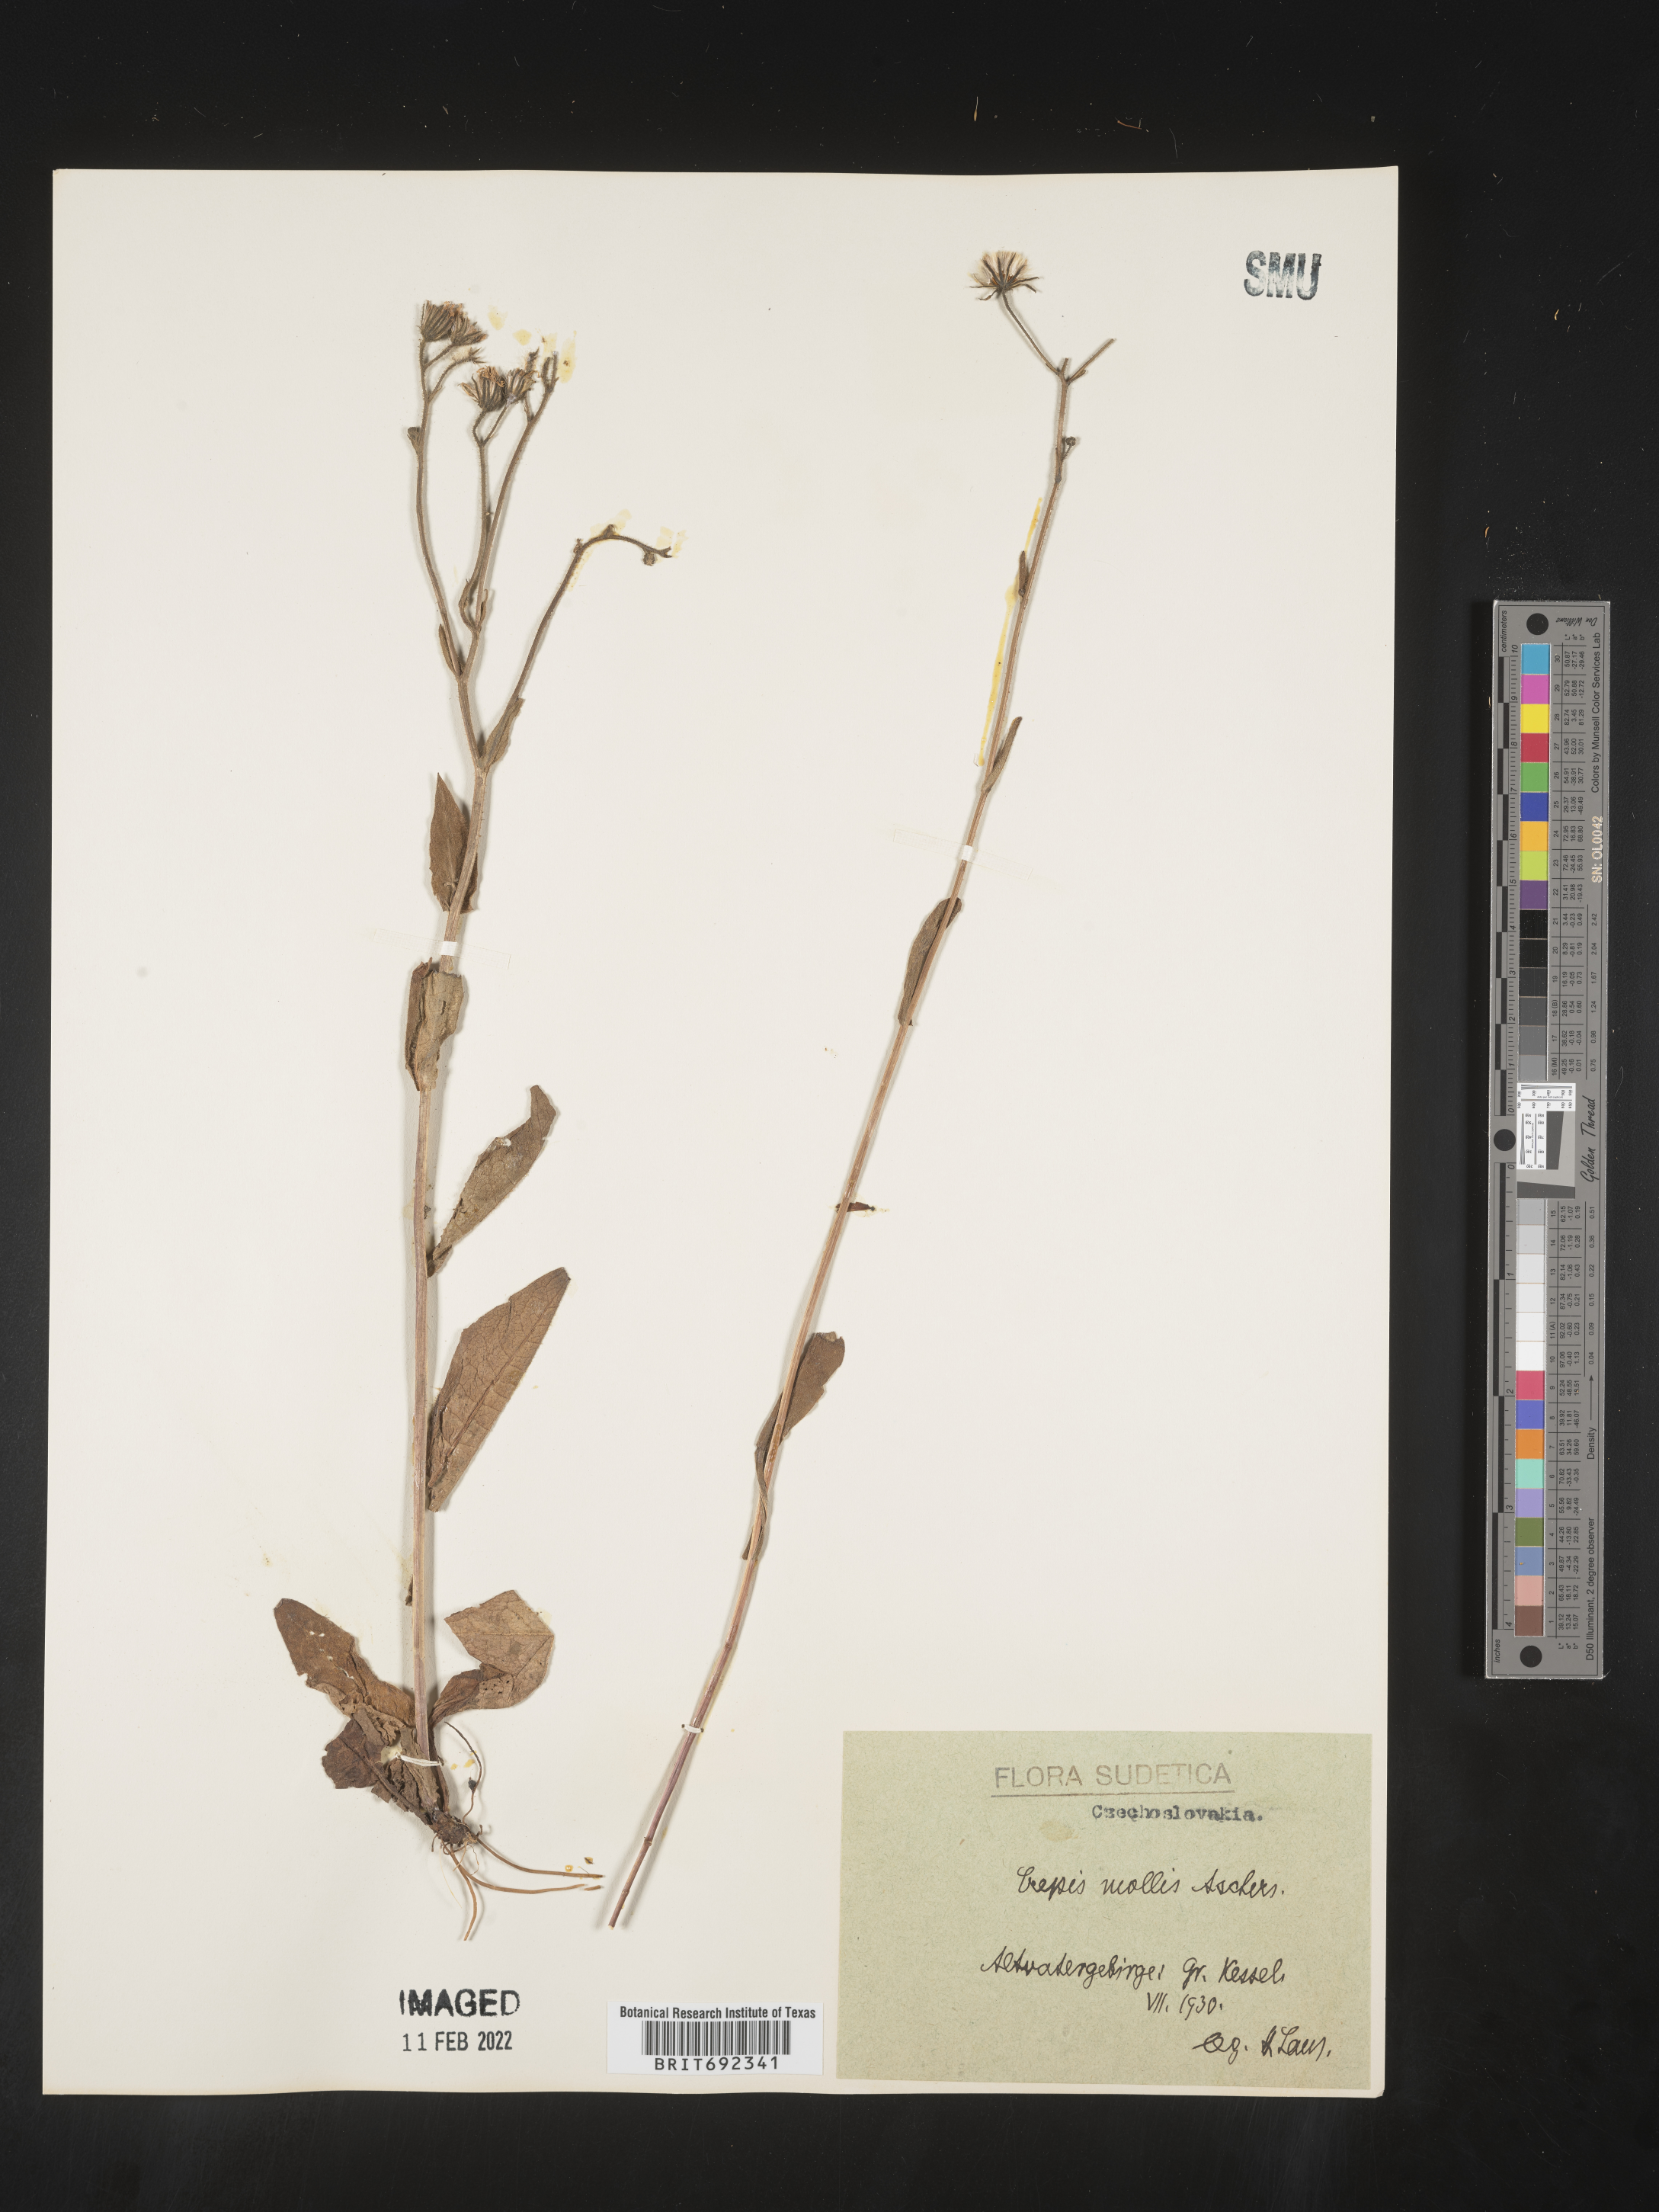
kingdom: Plantae
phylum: Tracheophyta
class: Magnoliopsida
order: Asterales
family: Asteraceae
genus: Crepis
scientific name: Crepis
